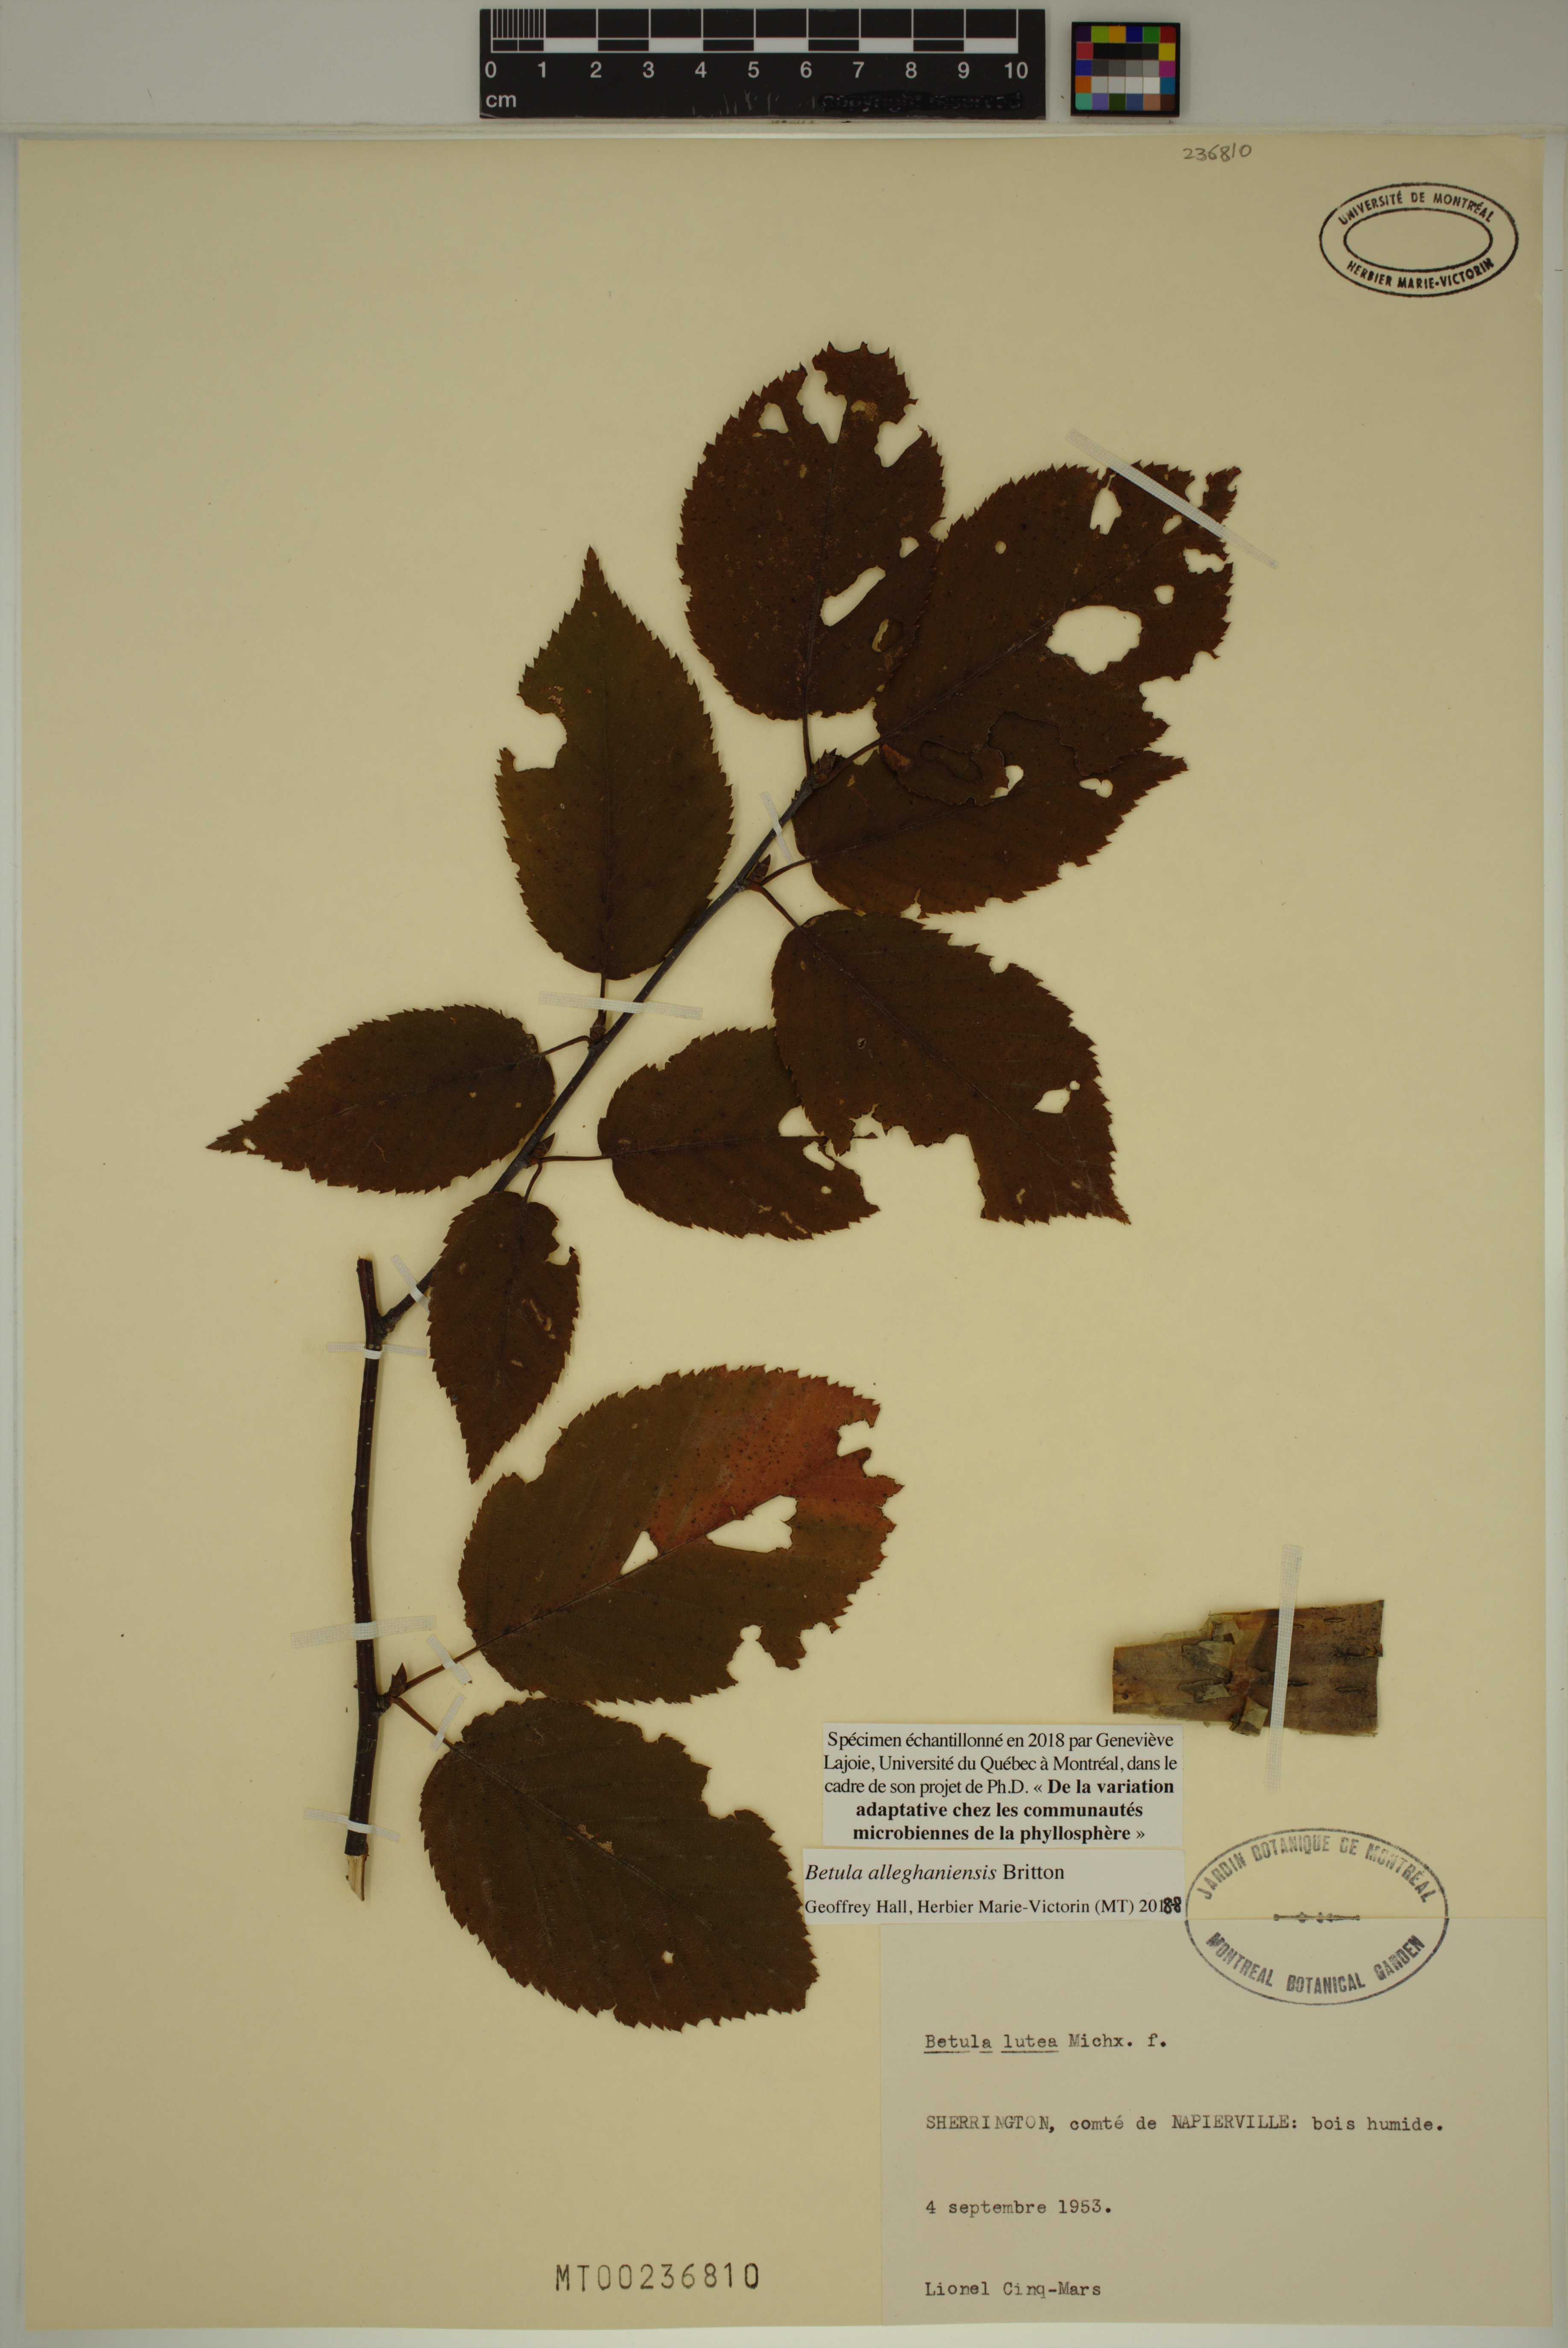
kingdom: Plantae
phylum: Tracheophyta
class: Magnoliopsida
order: Fagales
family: Betulaceae
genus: Betula
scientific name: Betula alleghaniensis
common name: Yellow birch
